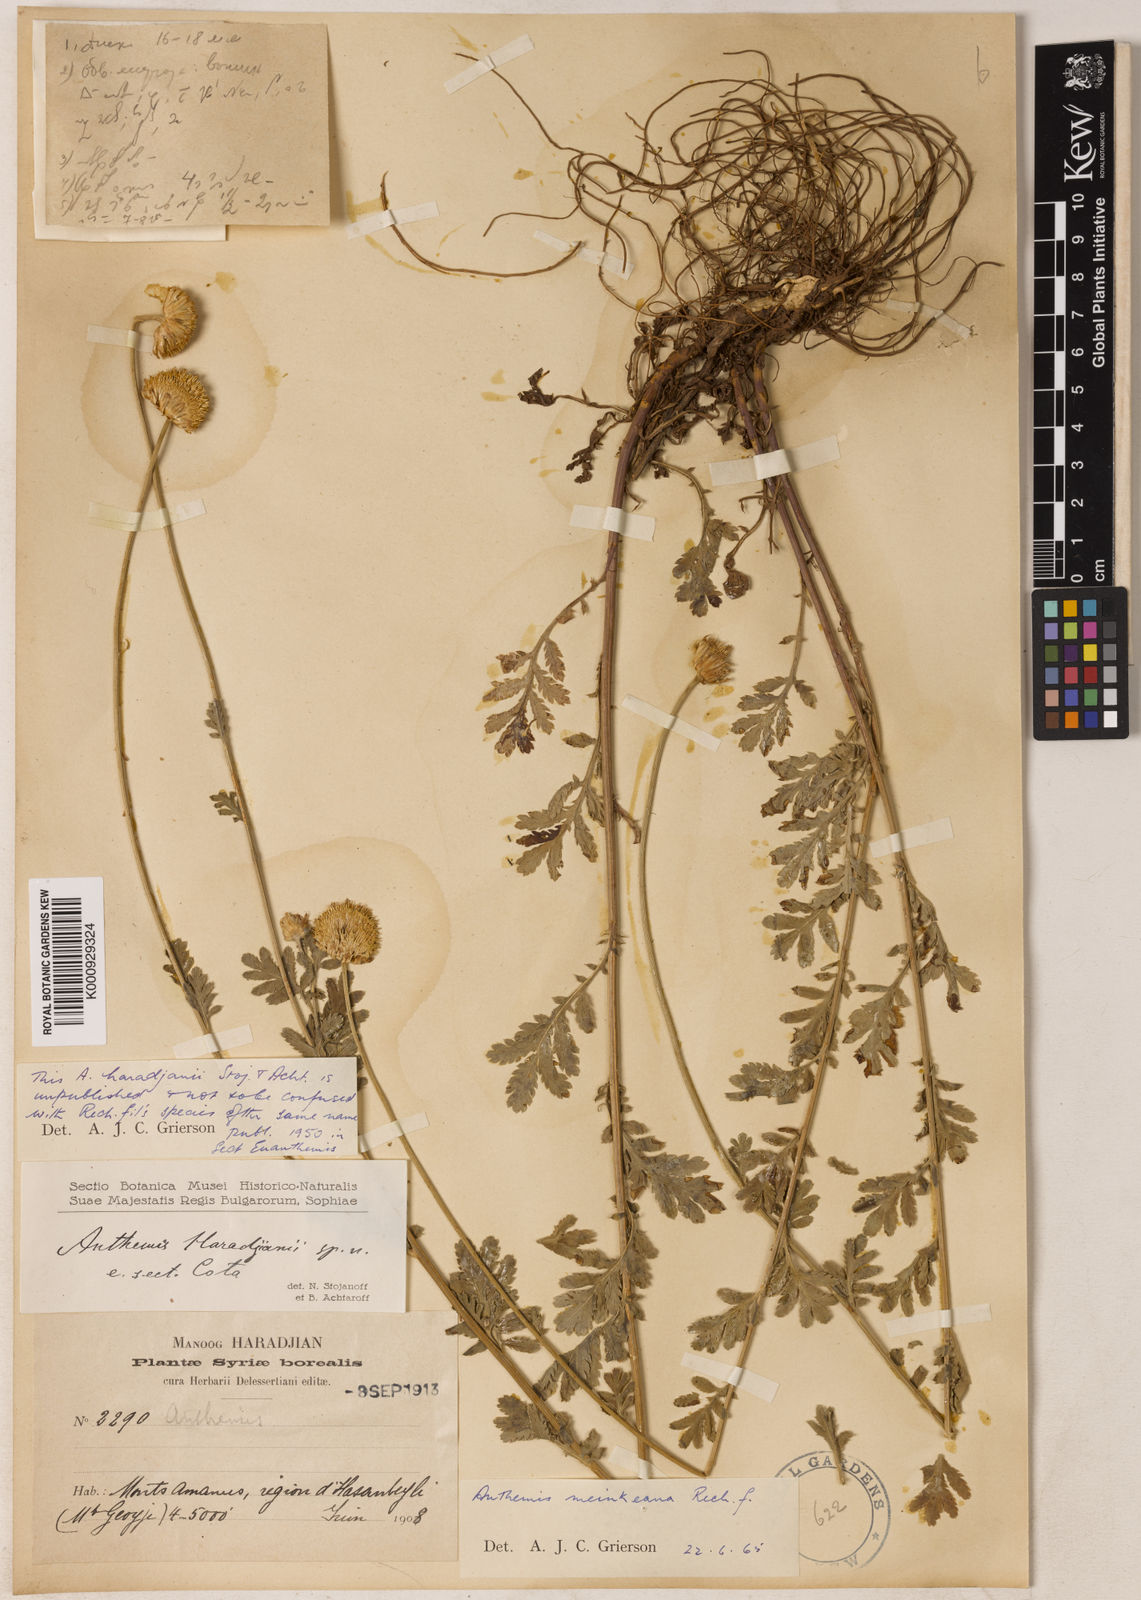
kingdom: Plantae
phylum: Tracheophyta
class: Magnoliopsida
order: Asterales
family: Asteraceae
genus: Cota
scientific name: Cota tinctoria
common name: Golden chamomile
